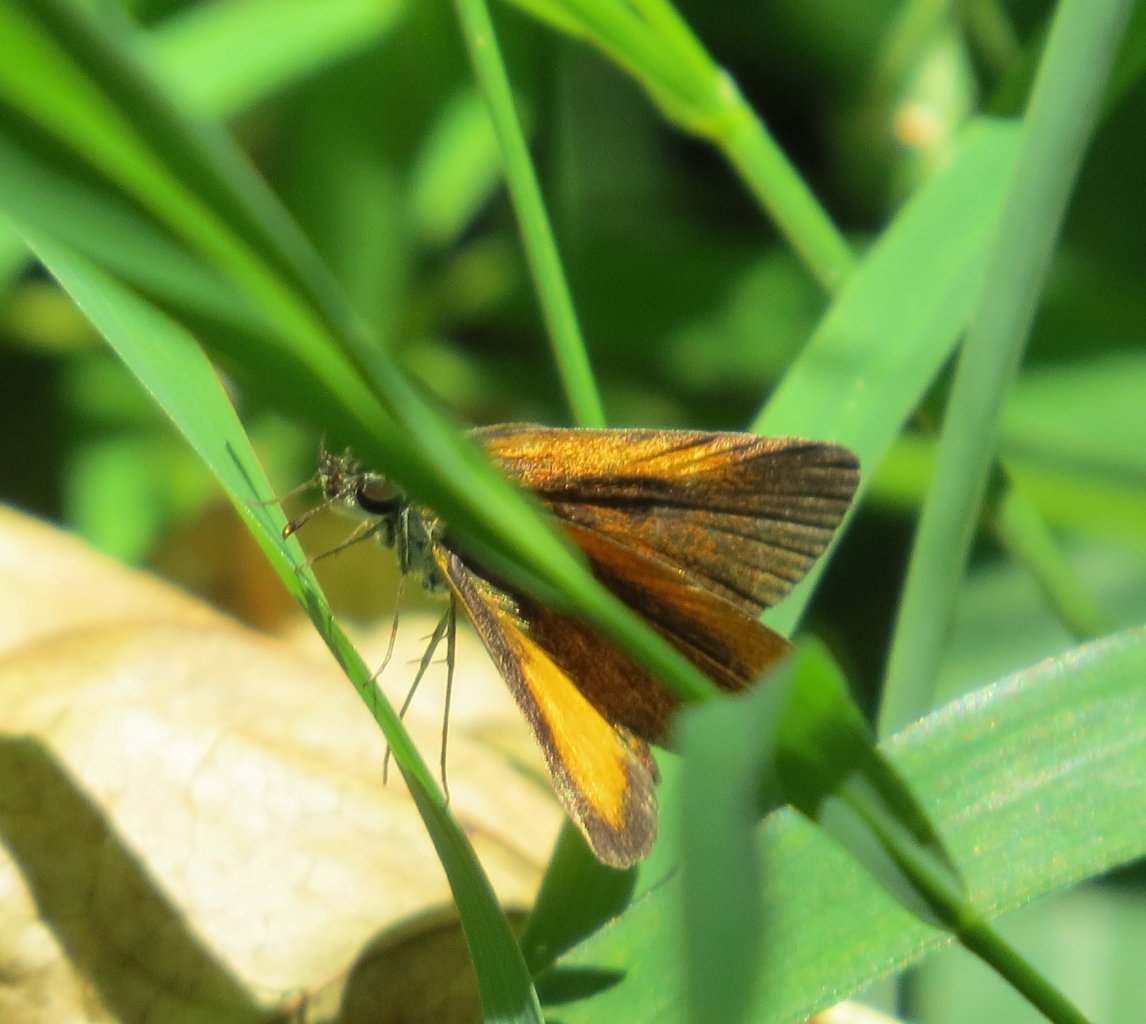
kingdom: Animalia
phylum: Arthropoda
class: Insecta
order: Lepidoptera
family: Hesperiidae
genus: Ancyloxypha
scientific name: Ancyloxypha numitor
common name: Least Skipper
